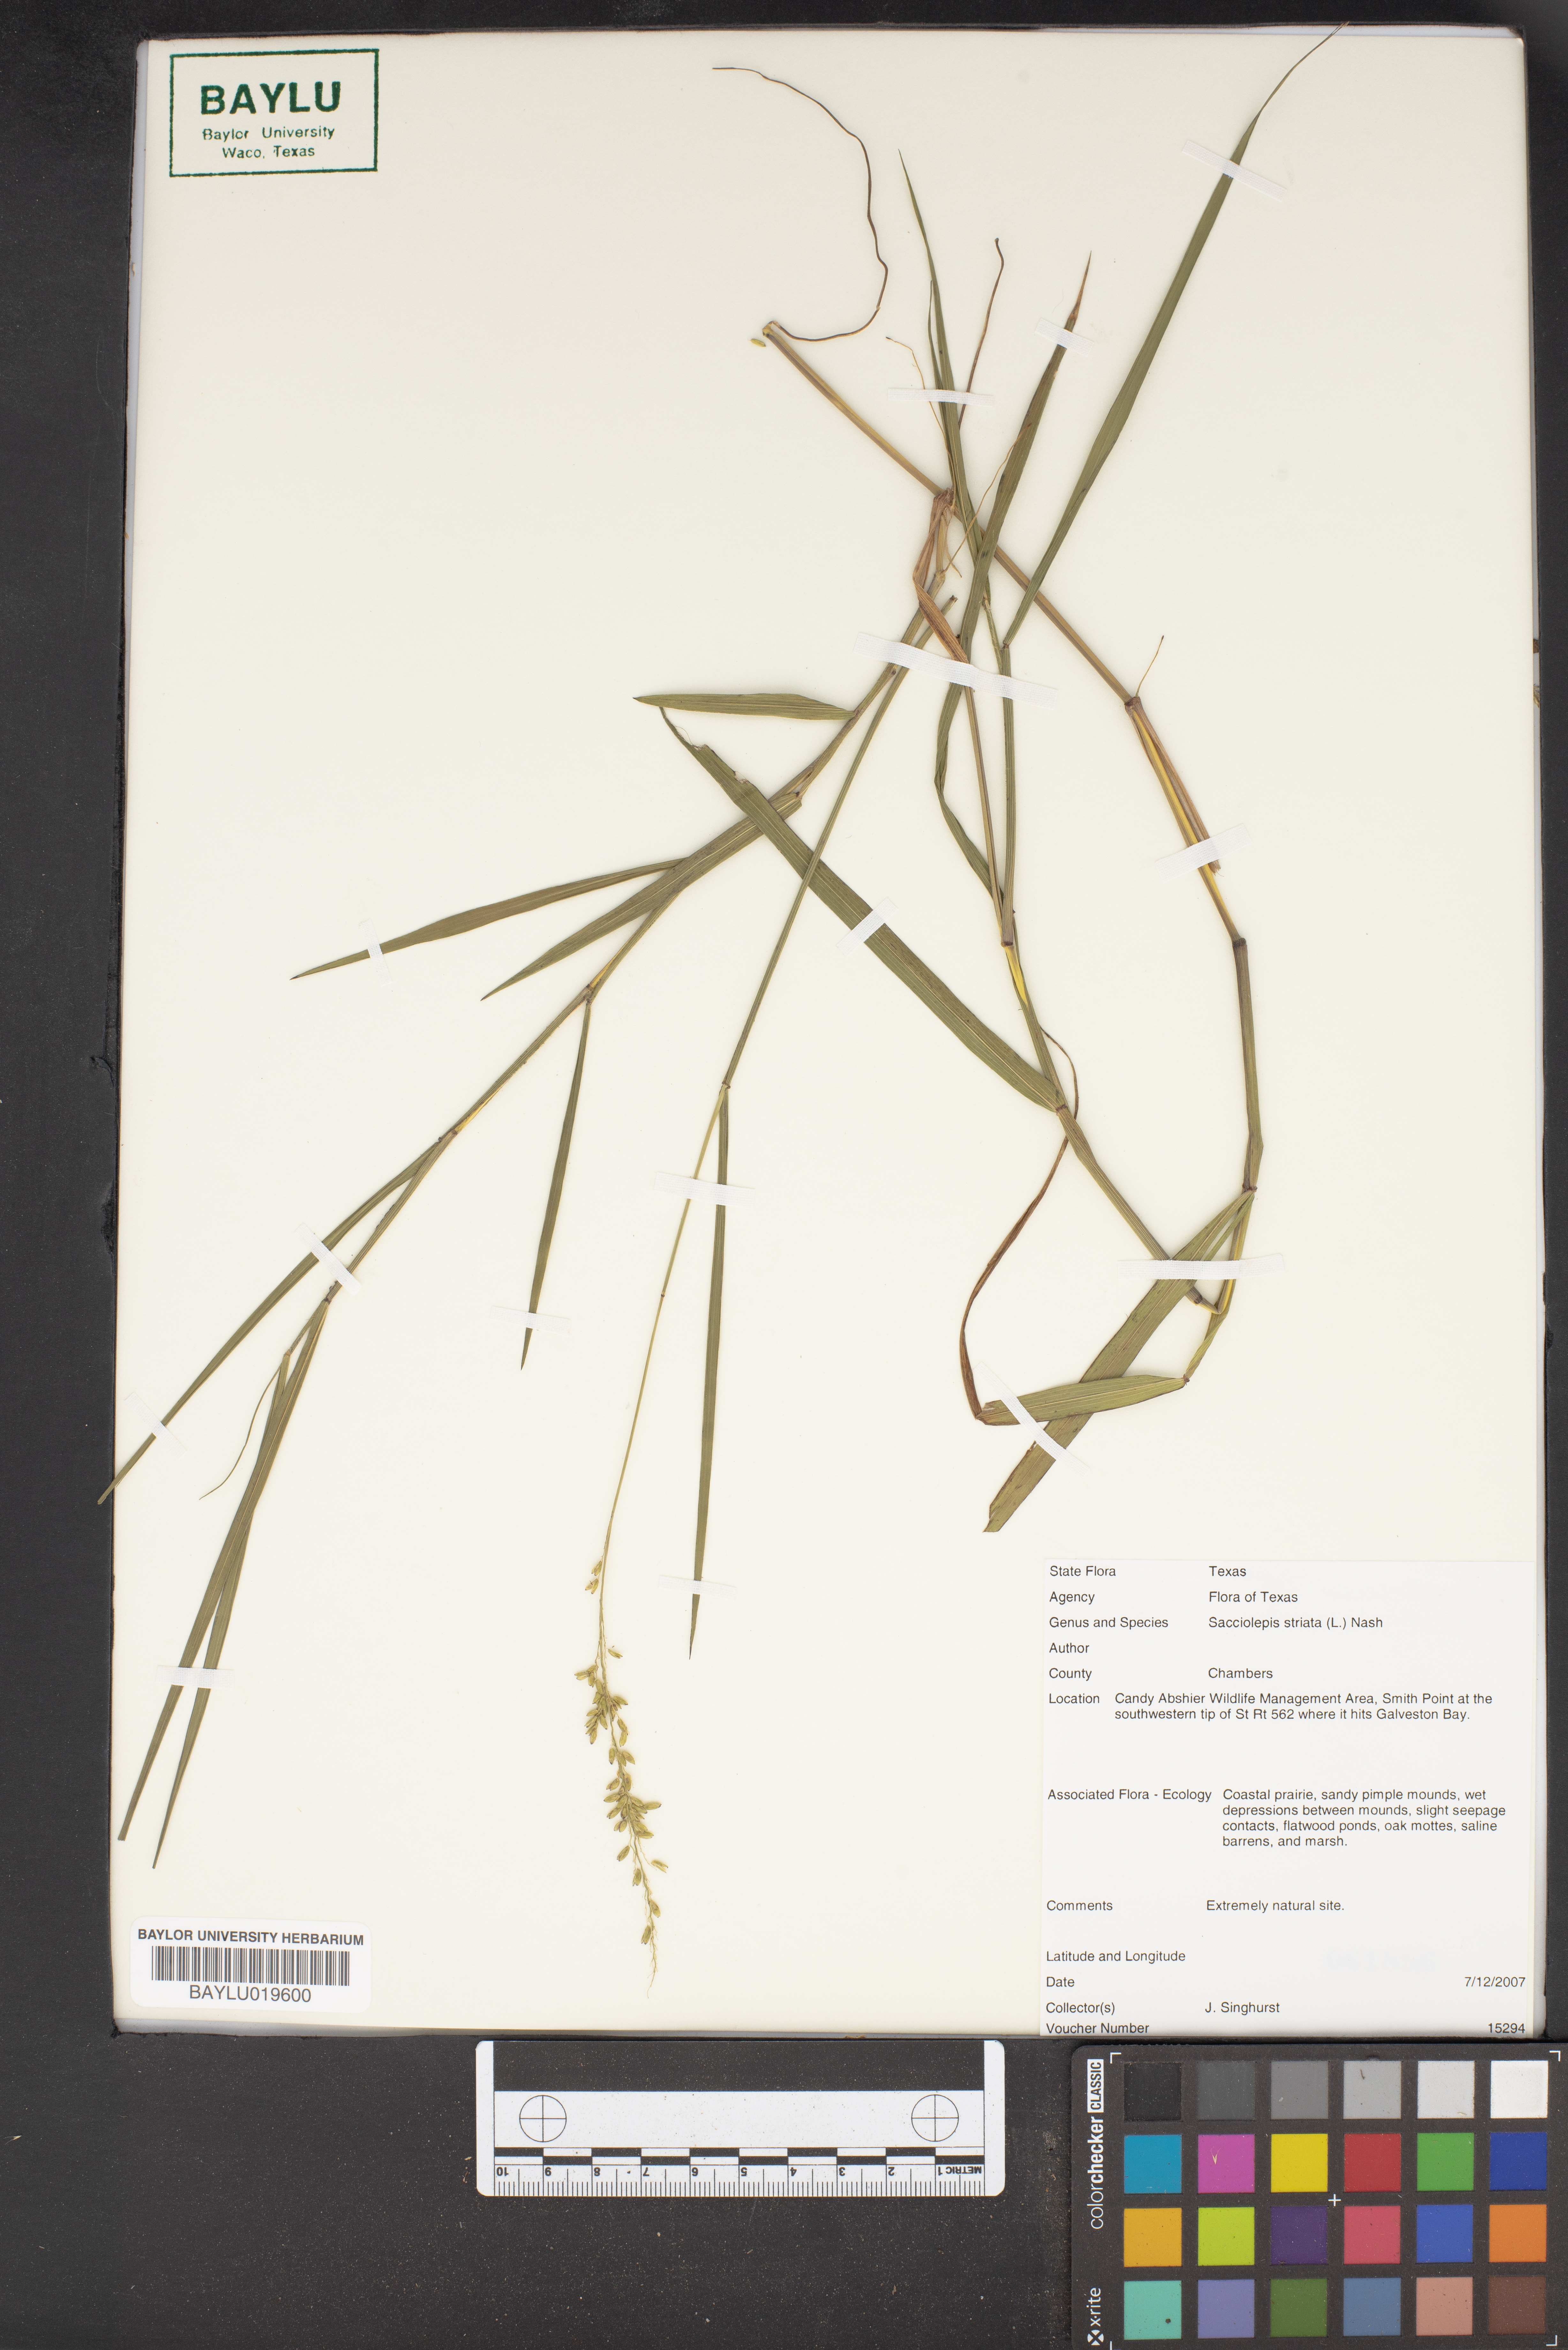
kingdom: Plantae
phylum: Tracheophyta
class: Liliopsida
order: Poales
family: Poaceae
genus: Sacciolepis
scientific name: Sacciolepis striata
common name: American cupscale
